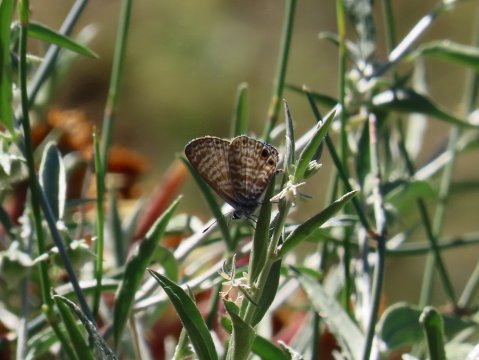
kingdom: Animalia
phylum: Arthropoda
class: Insecta
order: Lepidoptera
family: Lycaenidae
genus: Leptotes
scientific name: Leptotes marina
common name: Marine Blue
